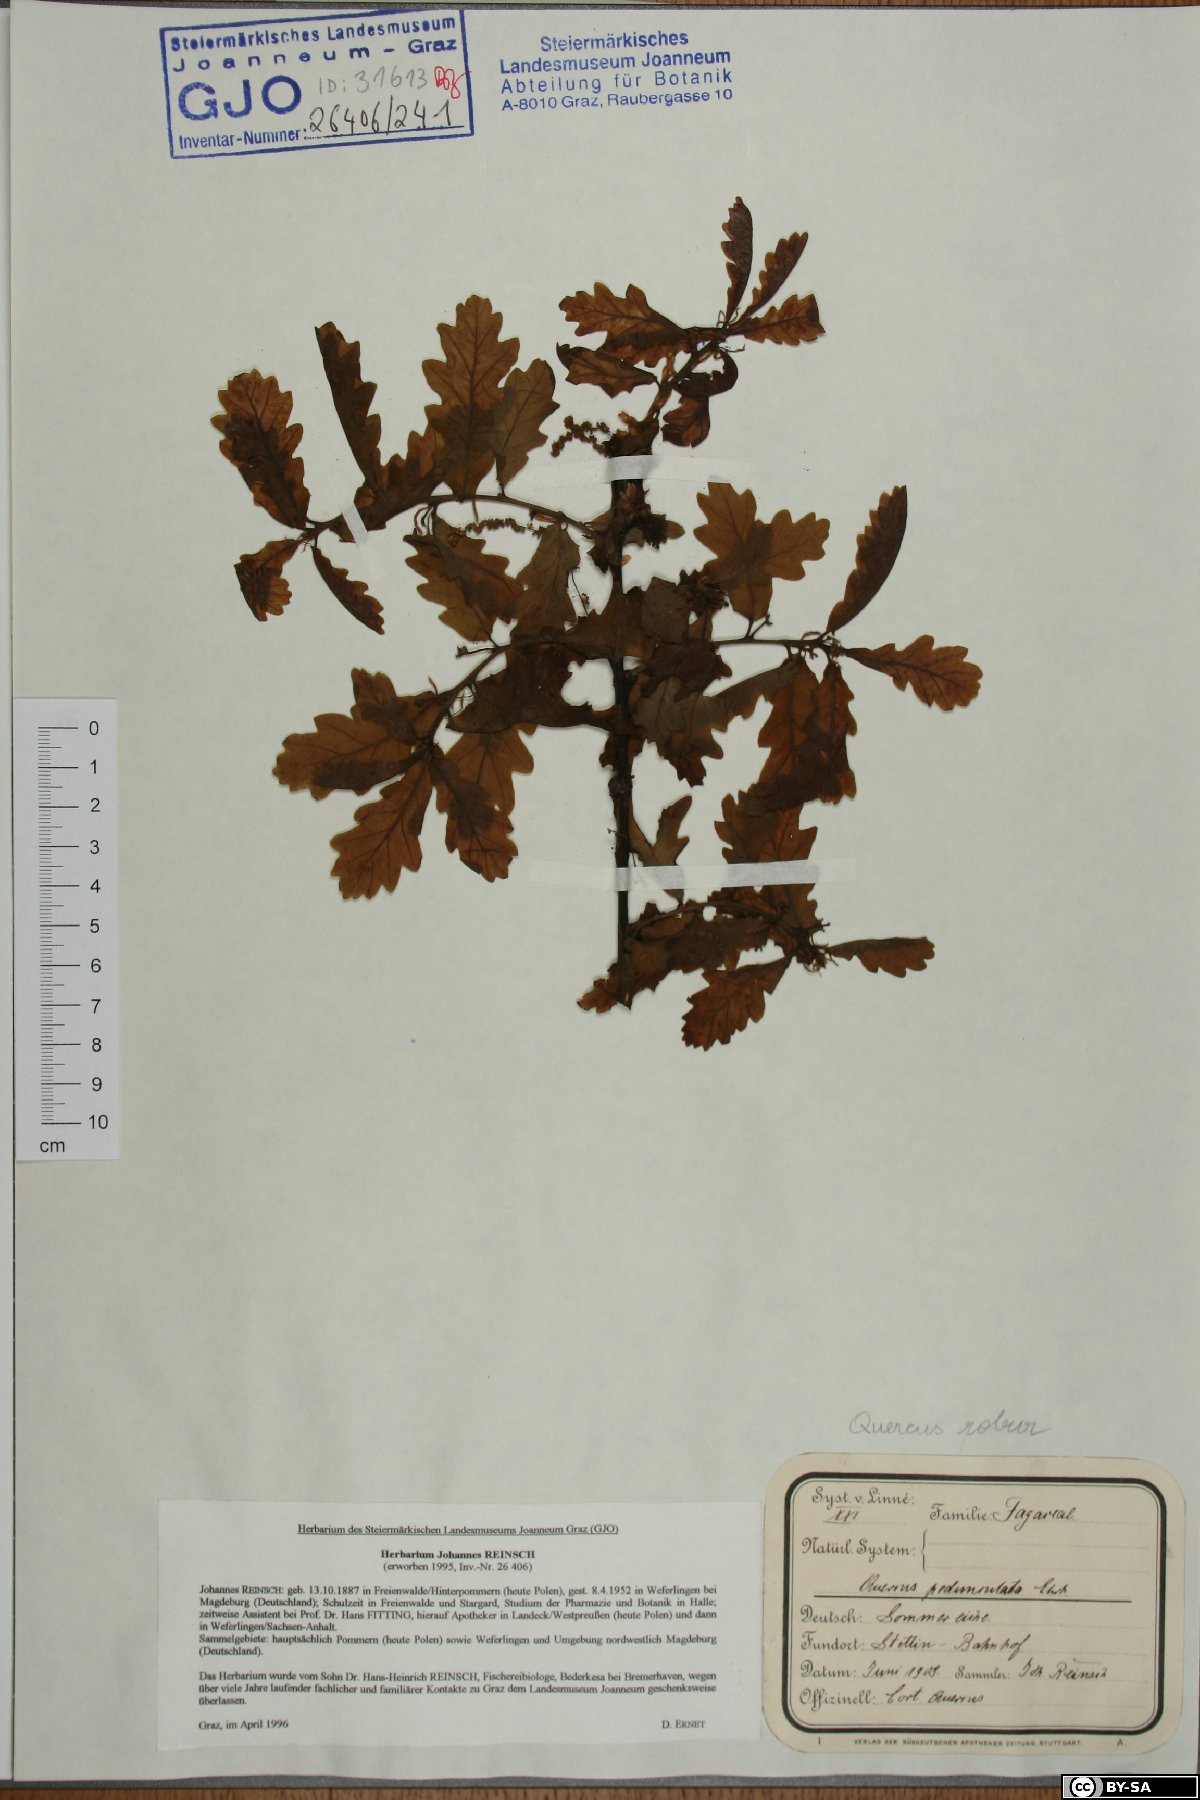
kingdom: Plantae
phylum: Tracheophyta
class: Magnoliopsida
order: Fagales
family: Fagaceae
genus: Quercus
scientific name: Quercus robur
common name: Pedunculate oak
